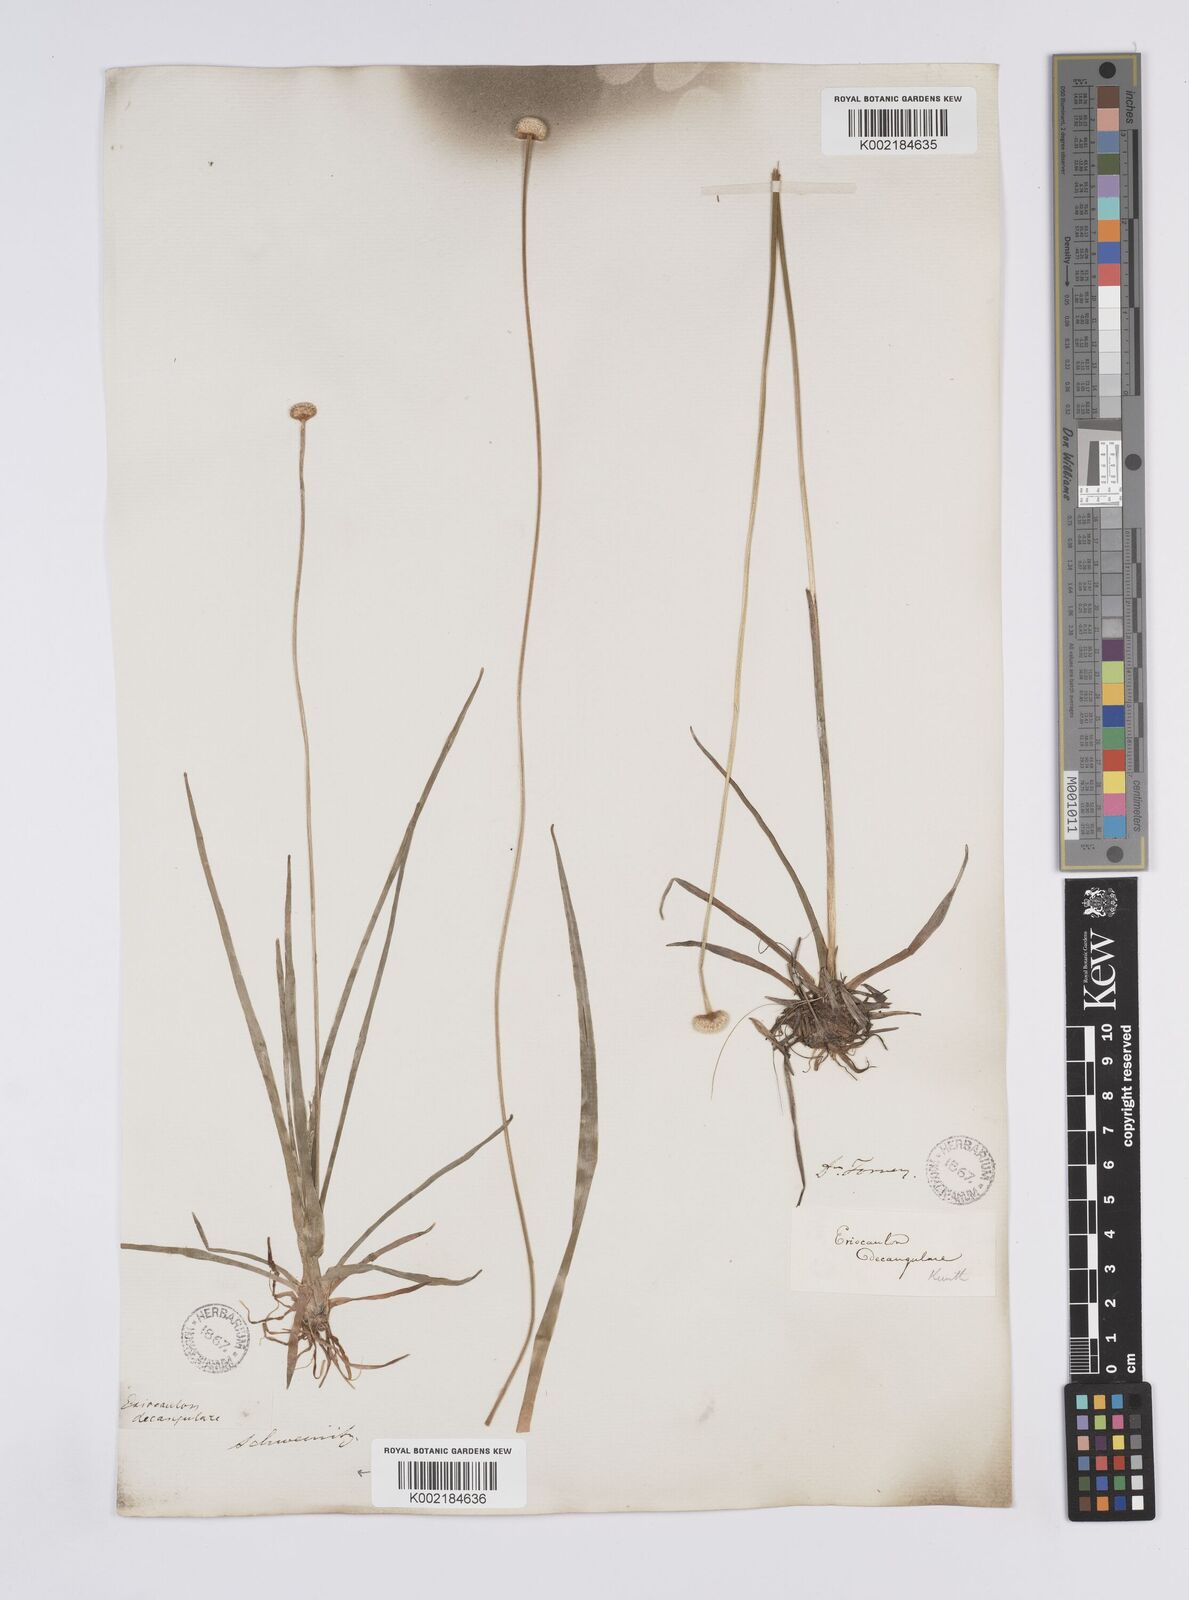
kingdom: Plantae
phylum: Tracheophyta
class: Liliopsida
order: Poales
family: Eriocaulaceae
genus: Eriocaulon
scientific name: Eriocaulon decangulare
